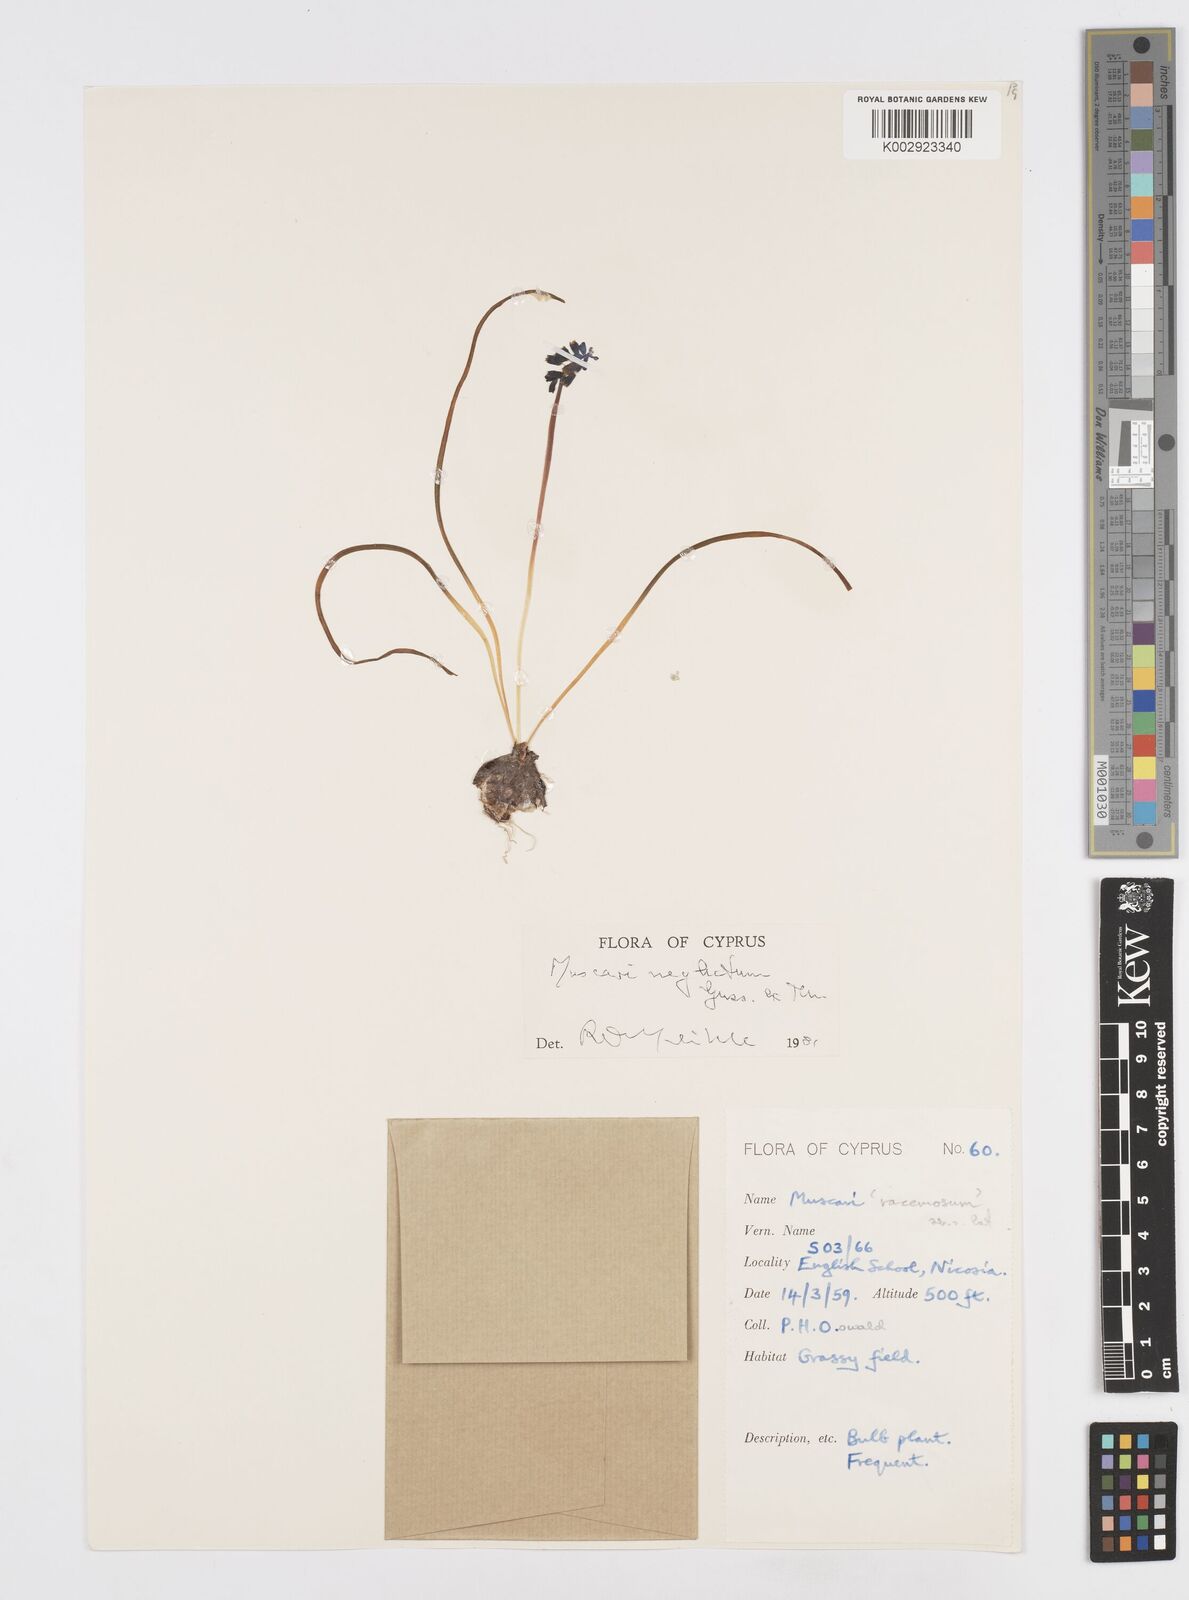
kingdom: Plantae
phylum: Tracheophyta
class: Liliopsida
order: Asparagales
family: Asparagaceae
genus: Muscari
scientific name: Muscari neglectum
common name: Grape-hyacinth
